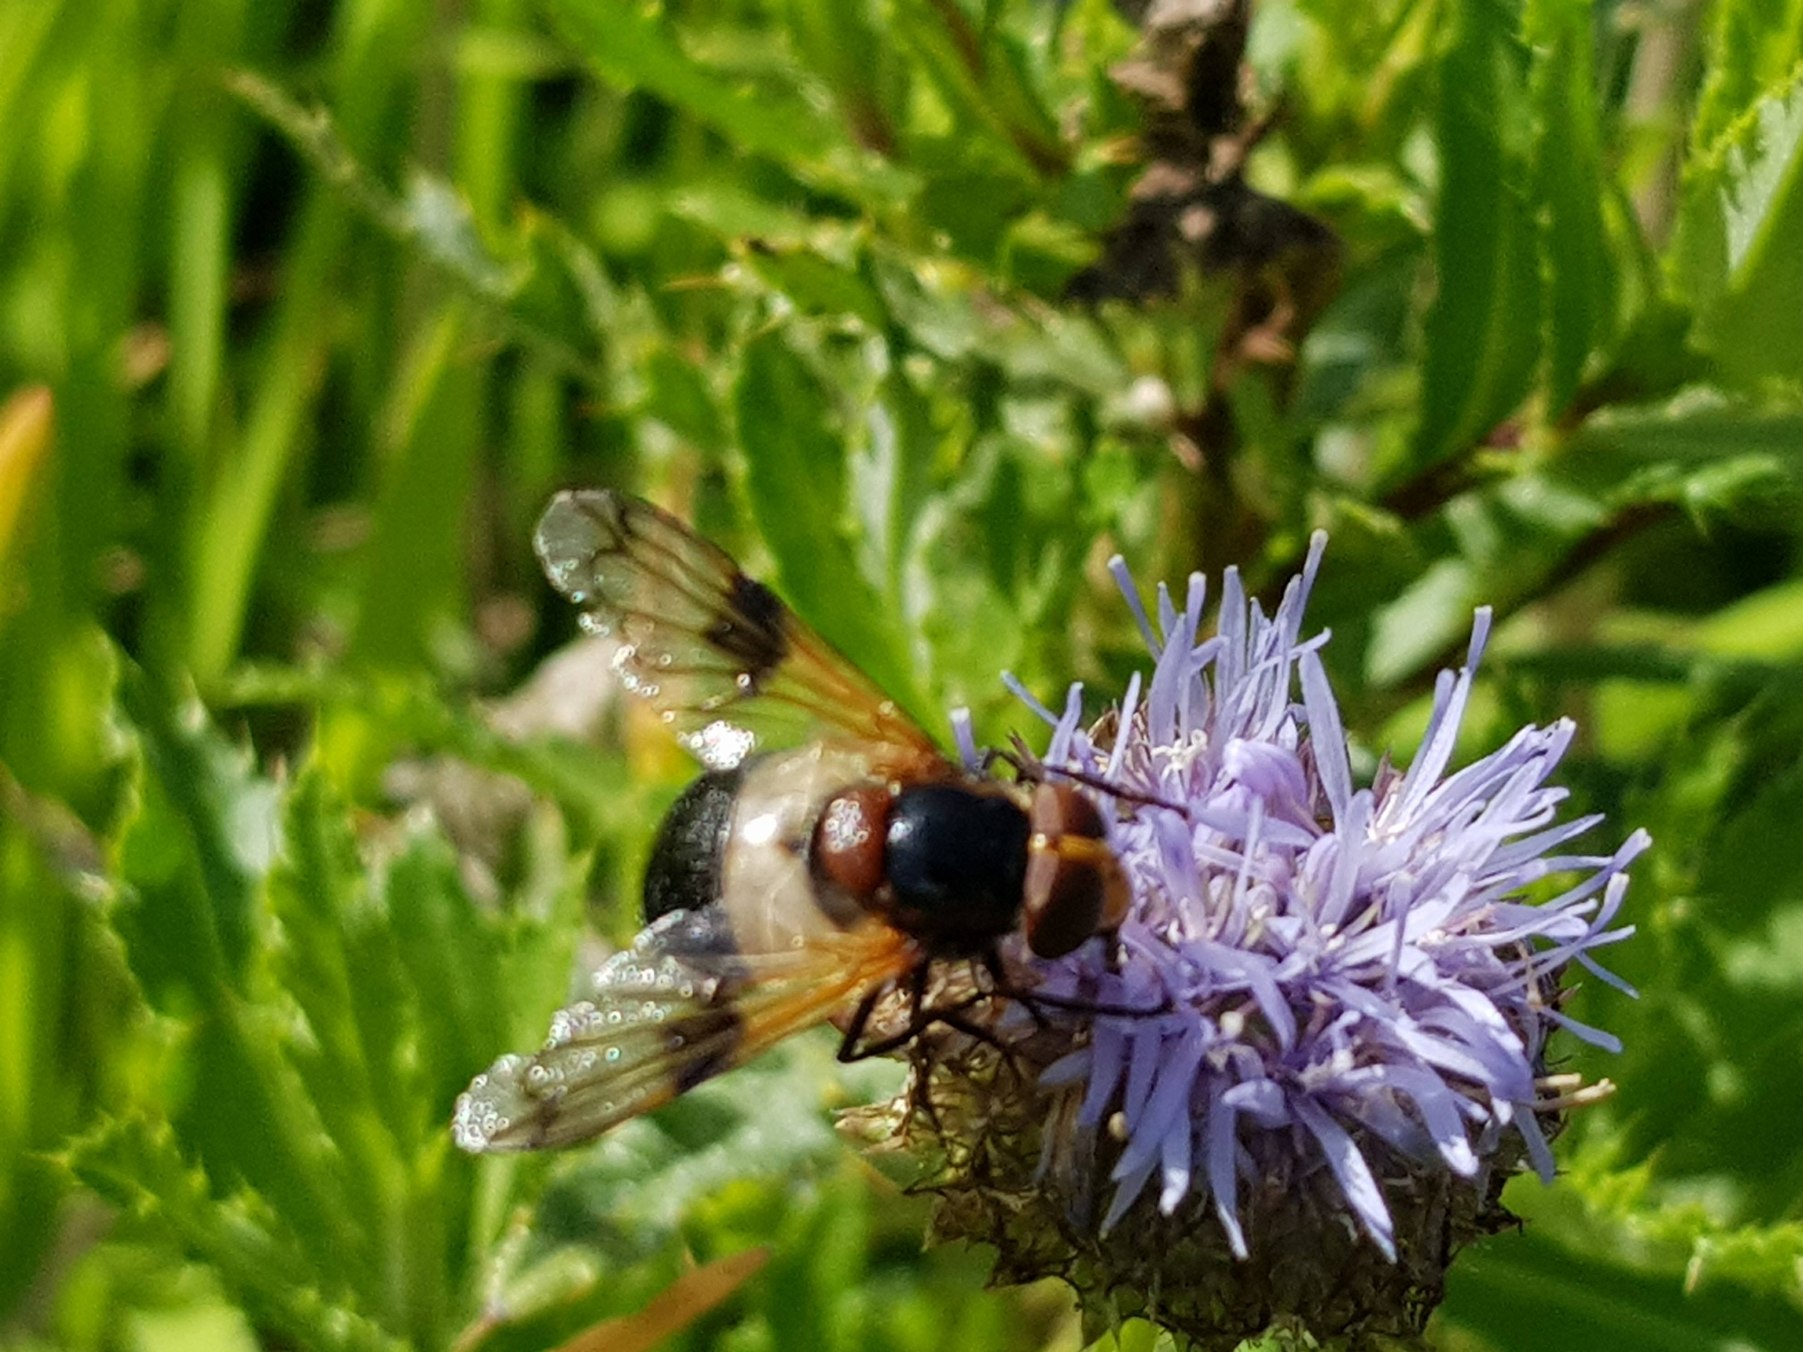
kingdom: Animalia
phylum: Arthropoda
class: Insecta
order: Diptera
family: Syrphidae
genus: Volucella
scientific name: Volucella pellucens
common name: Hvidbåndet humlesvirreflue
